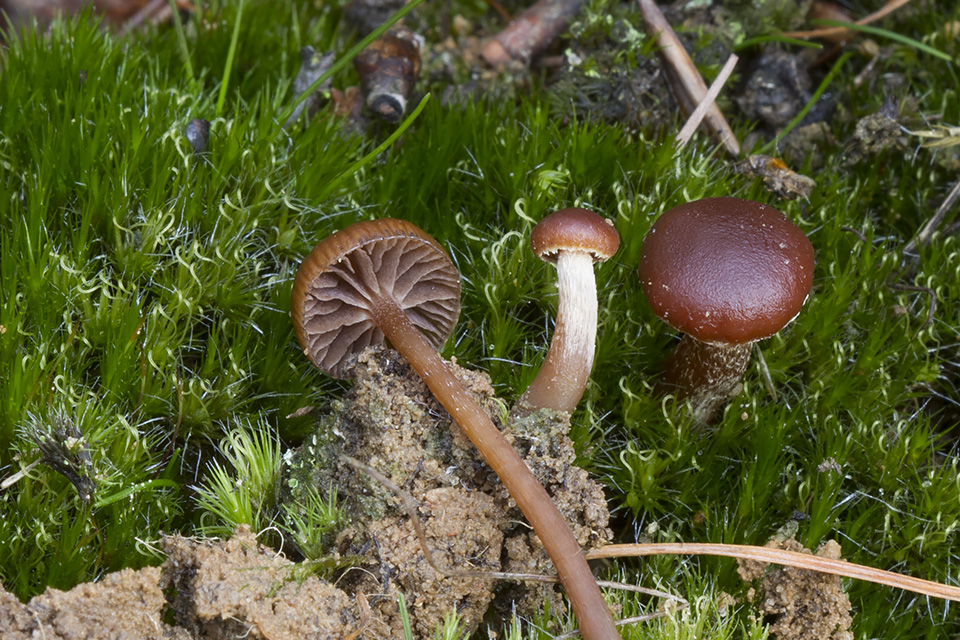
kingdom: Fungi
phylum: Basidiomycota
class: Agaricomycetes
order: Agaricales
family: Strophariaceae
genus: Deconica
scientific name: Deconica montana
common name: rødbrun stråhat
